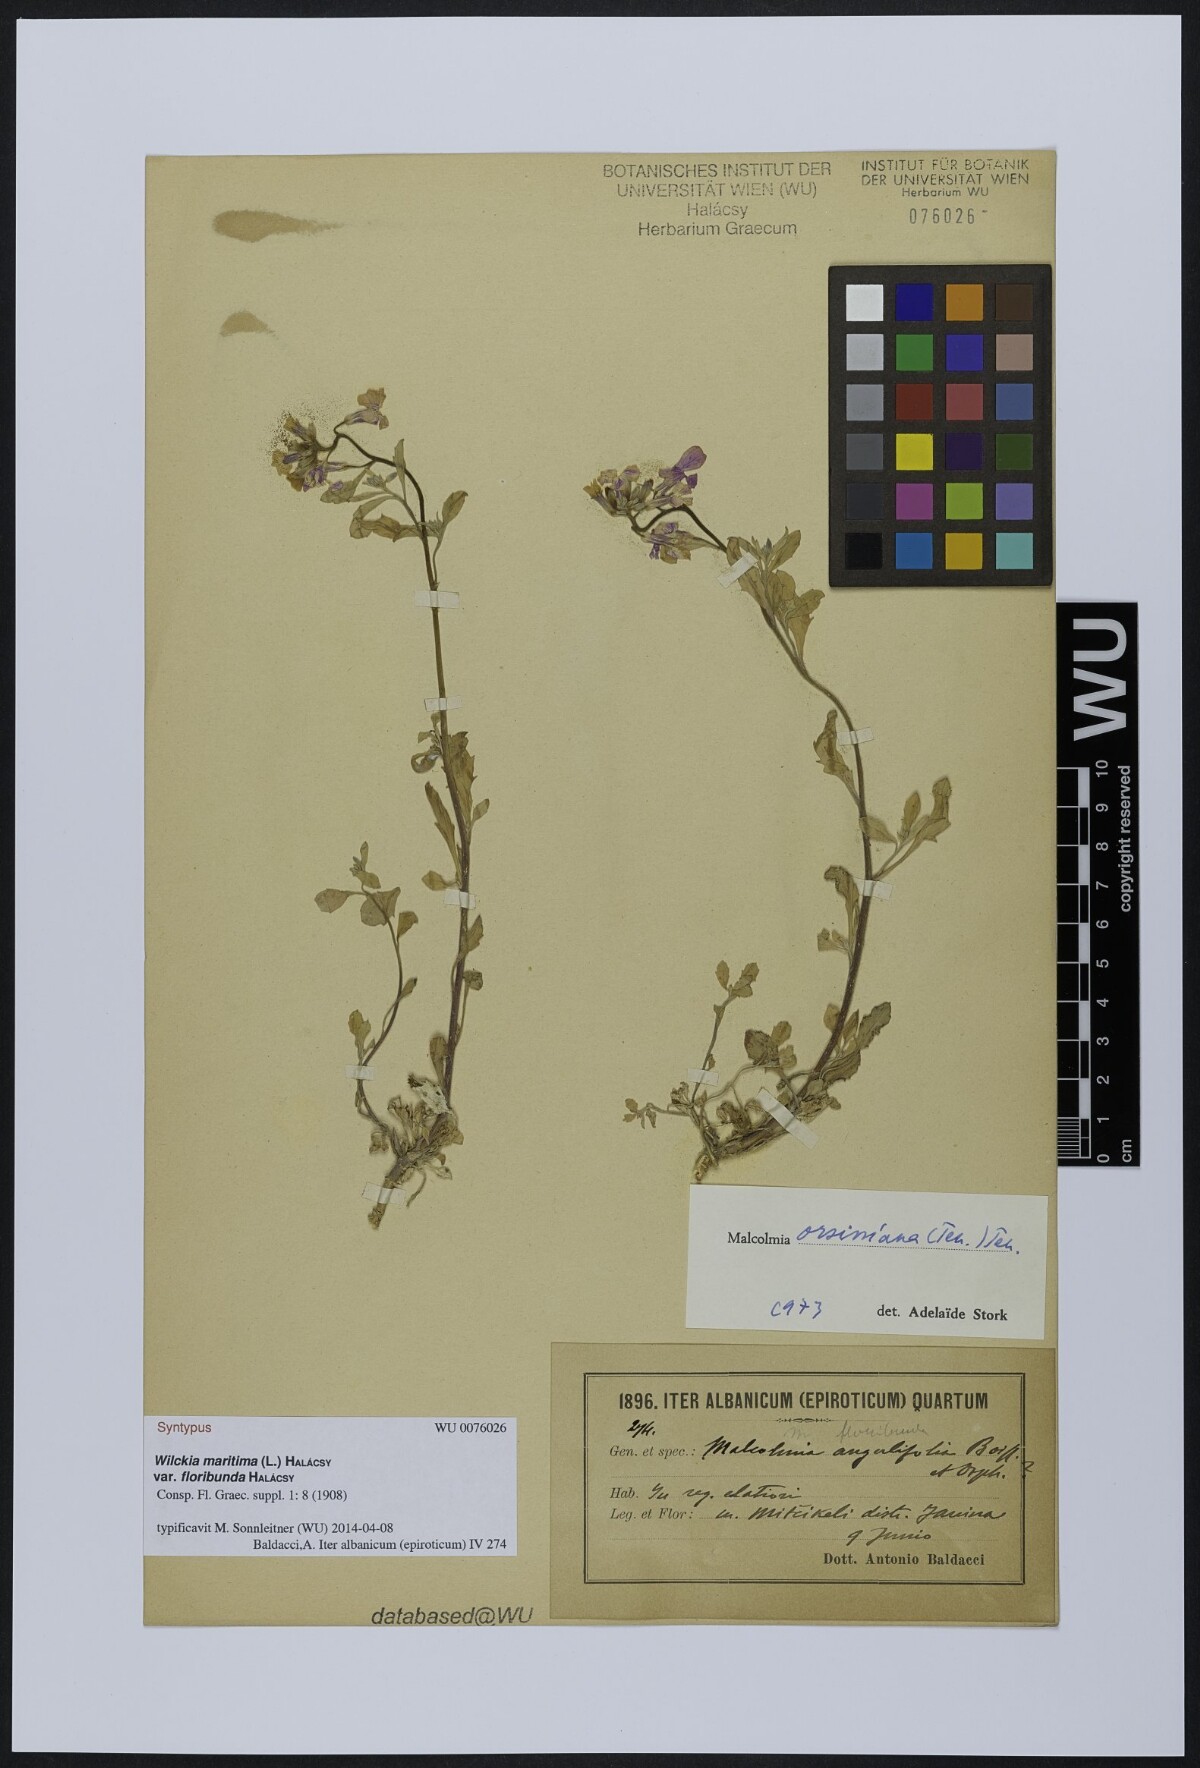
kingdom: Plantae
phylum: Tracheophyta
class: Magnoliopsida
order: Brassicales
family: Brassicaceae
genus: Malcolmia
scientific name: Malcolmia orsiniana
